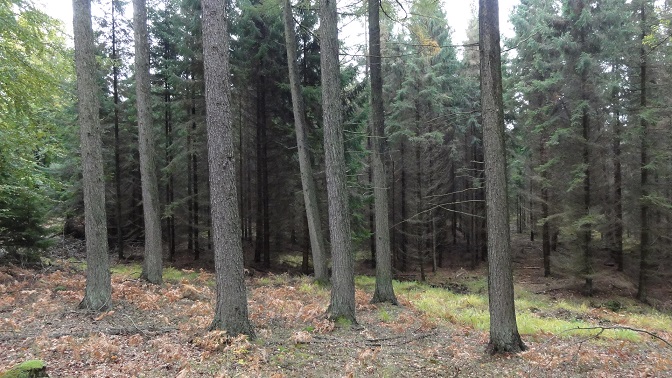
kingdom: Fungi
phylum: Basidiomycota
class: Agaricomycetes
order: Boletales
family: Suillaceae
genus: Suillus
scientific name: Suillus cavipes
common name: hulstokket slimrørhat
